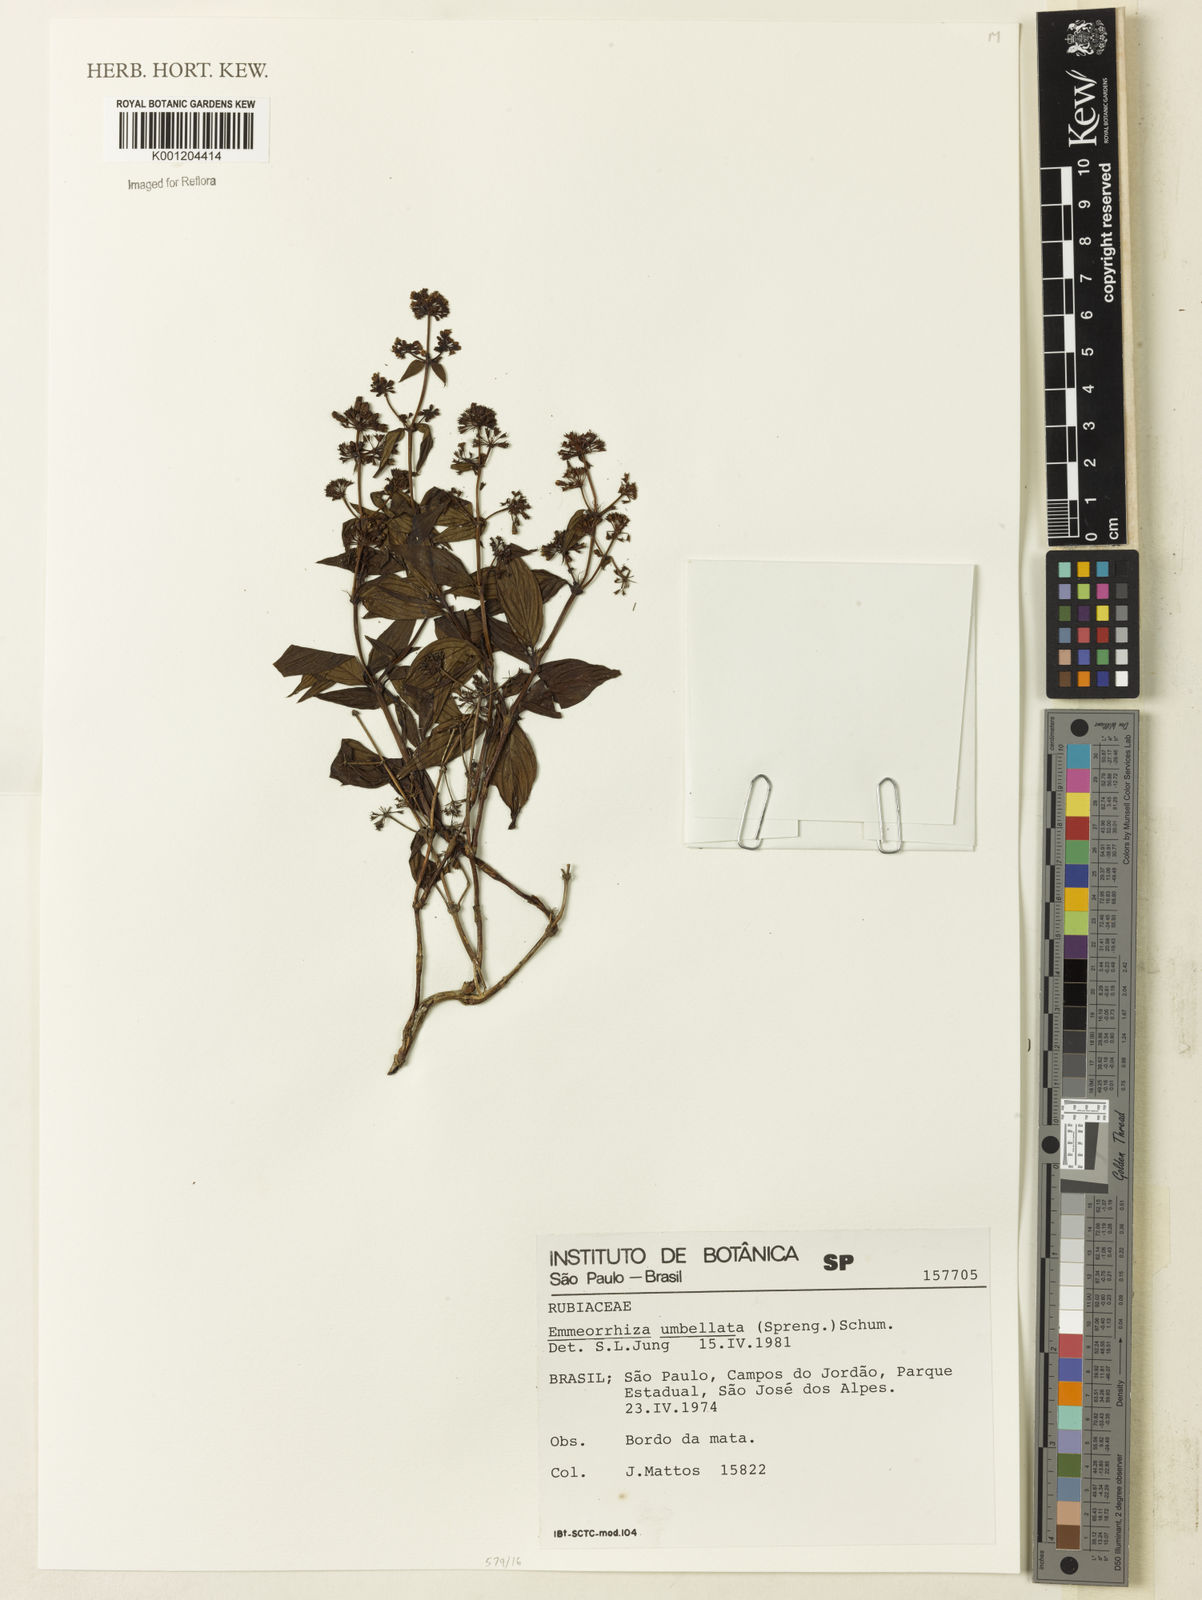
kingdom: Plantae
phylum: Tracheophyta
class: Magnoliopsida
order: Gentianales
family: Rubiaceae
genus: Emmeorhiza
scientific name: Emmeorhiza umbellata
